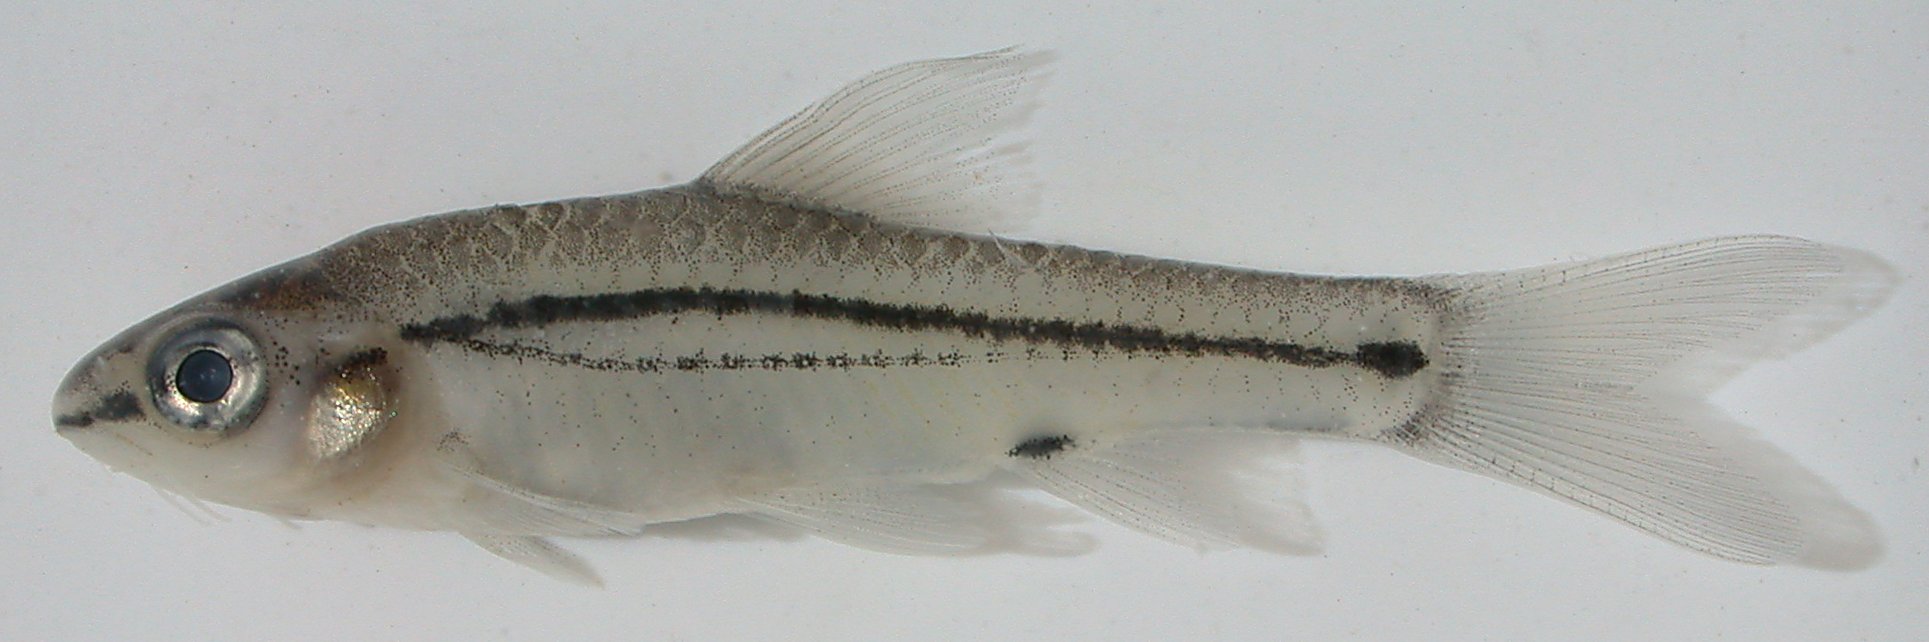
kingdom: Animalia
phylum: Chordata
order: Cypriniformes
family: Cyprinidae
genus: Enteromius
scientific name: Enteromius bifrenatus
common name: Hyphen barb
